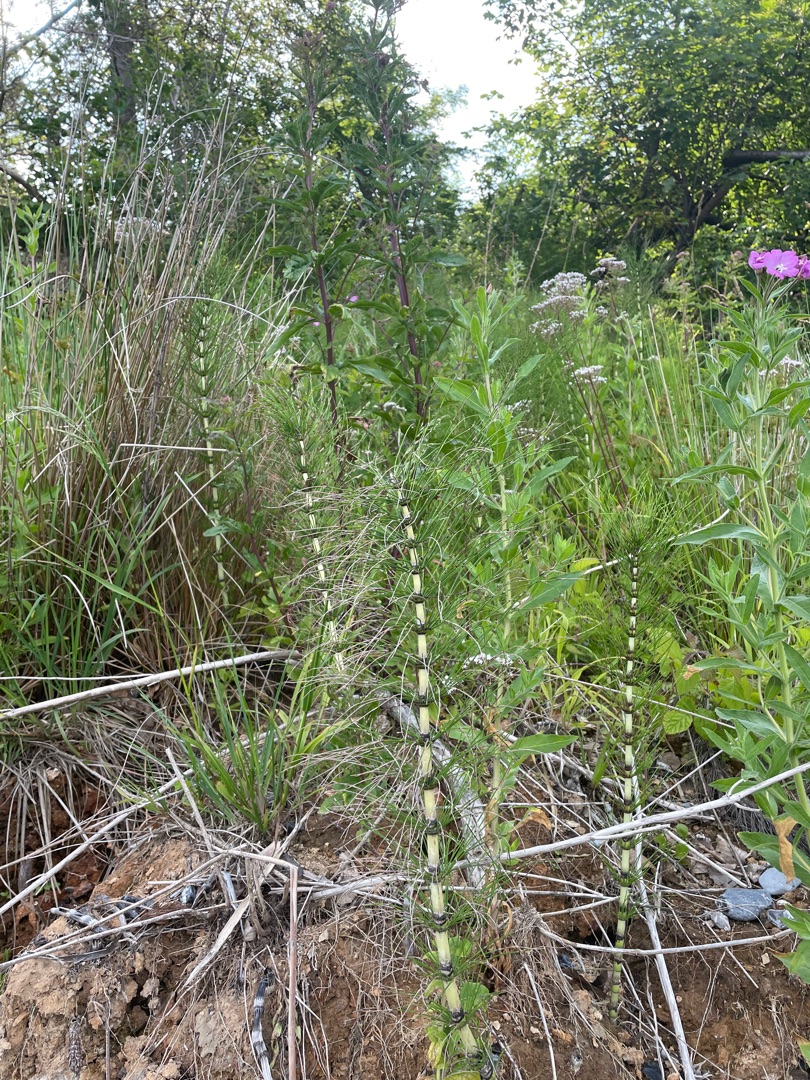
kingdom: Plantae
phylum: Tracheophyta
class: Polypodiopsida
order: Equisetales
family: Equisetaceae
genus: Equisetum
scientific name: Equisetum telmateia
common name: Elfenbens-padderok
